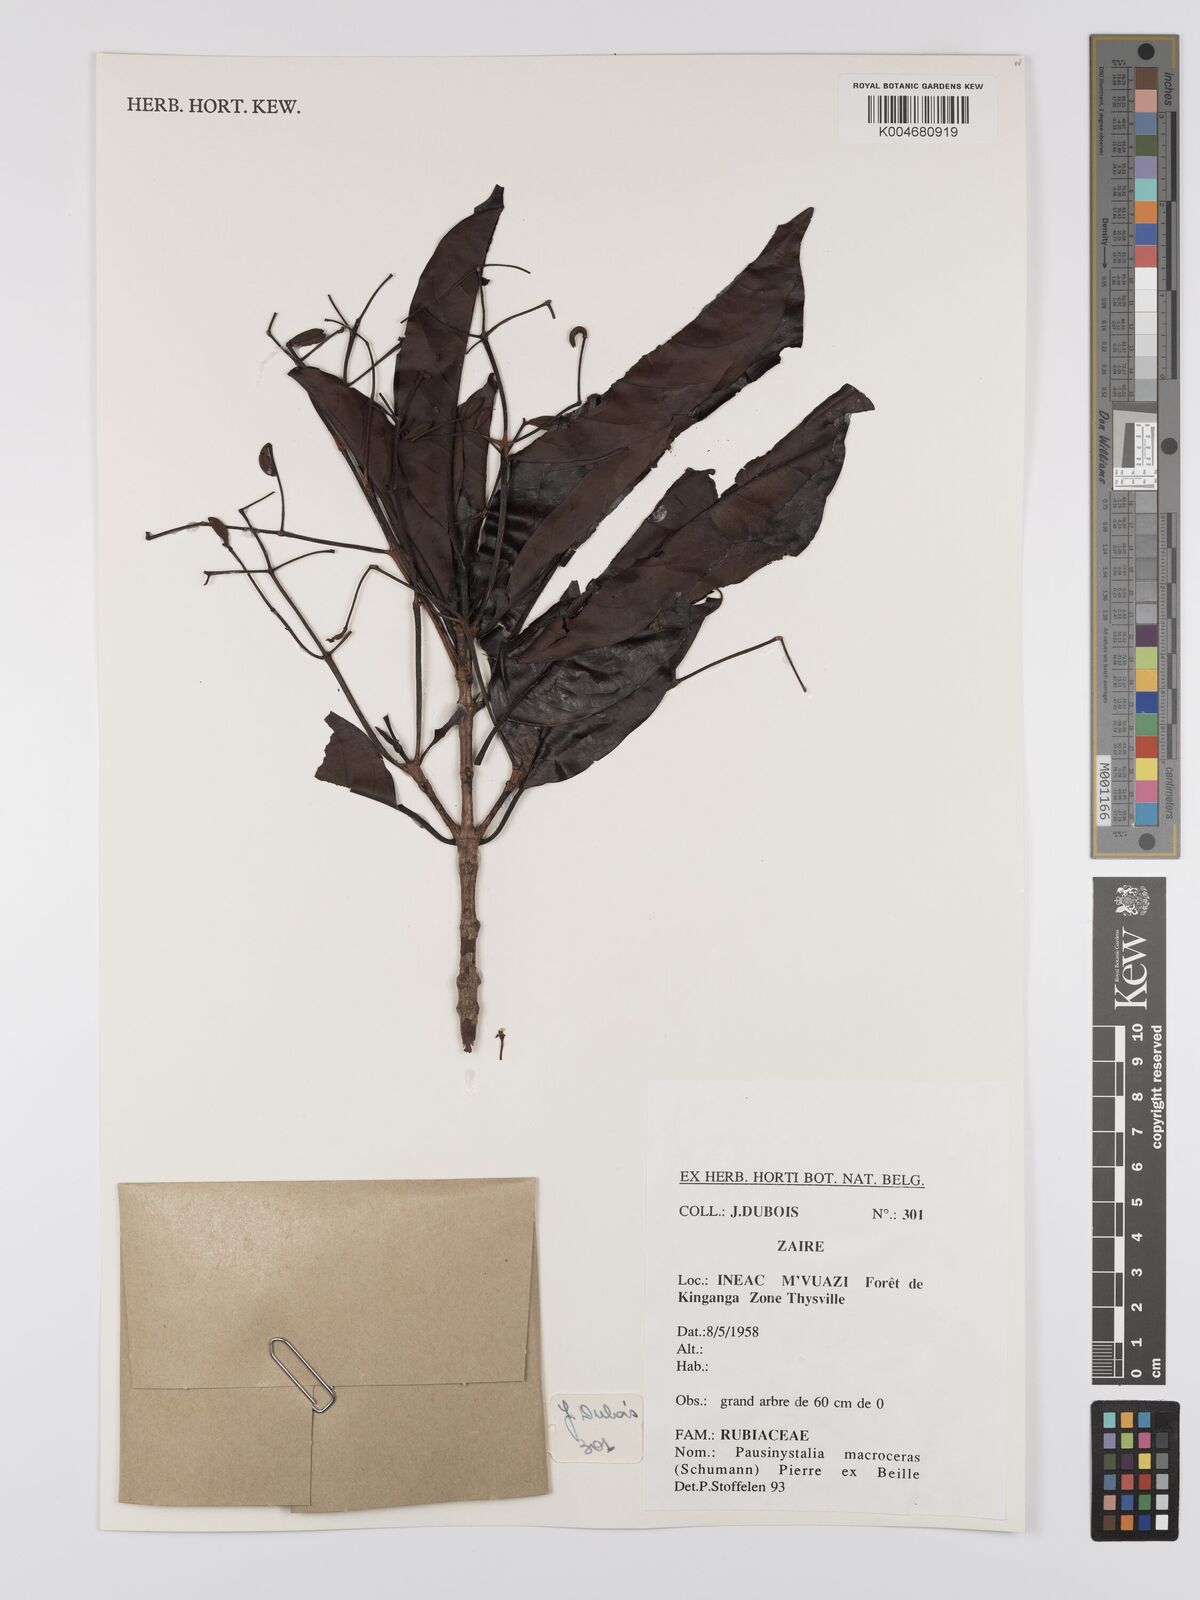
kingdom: Plantae
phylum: Tracheophyta
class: Magnoliopsida
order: Gentianales
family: Rubiaceae
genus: Corynanthe
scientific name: Corynanthe macroceras
